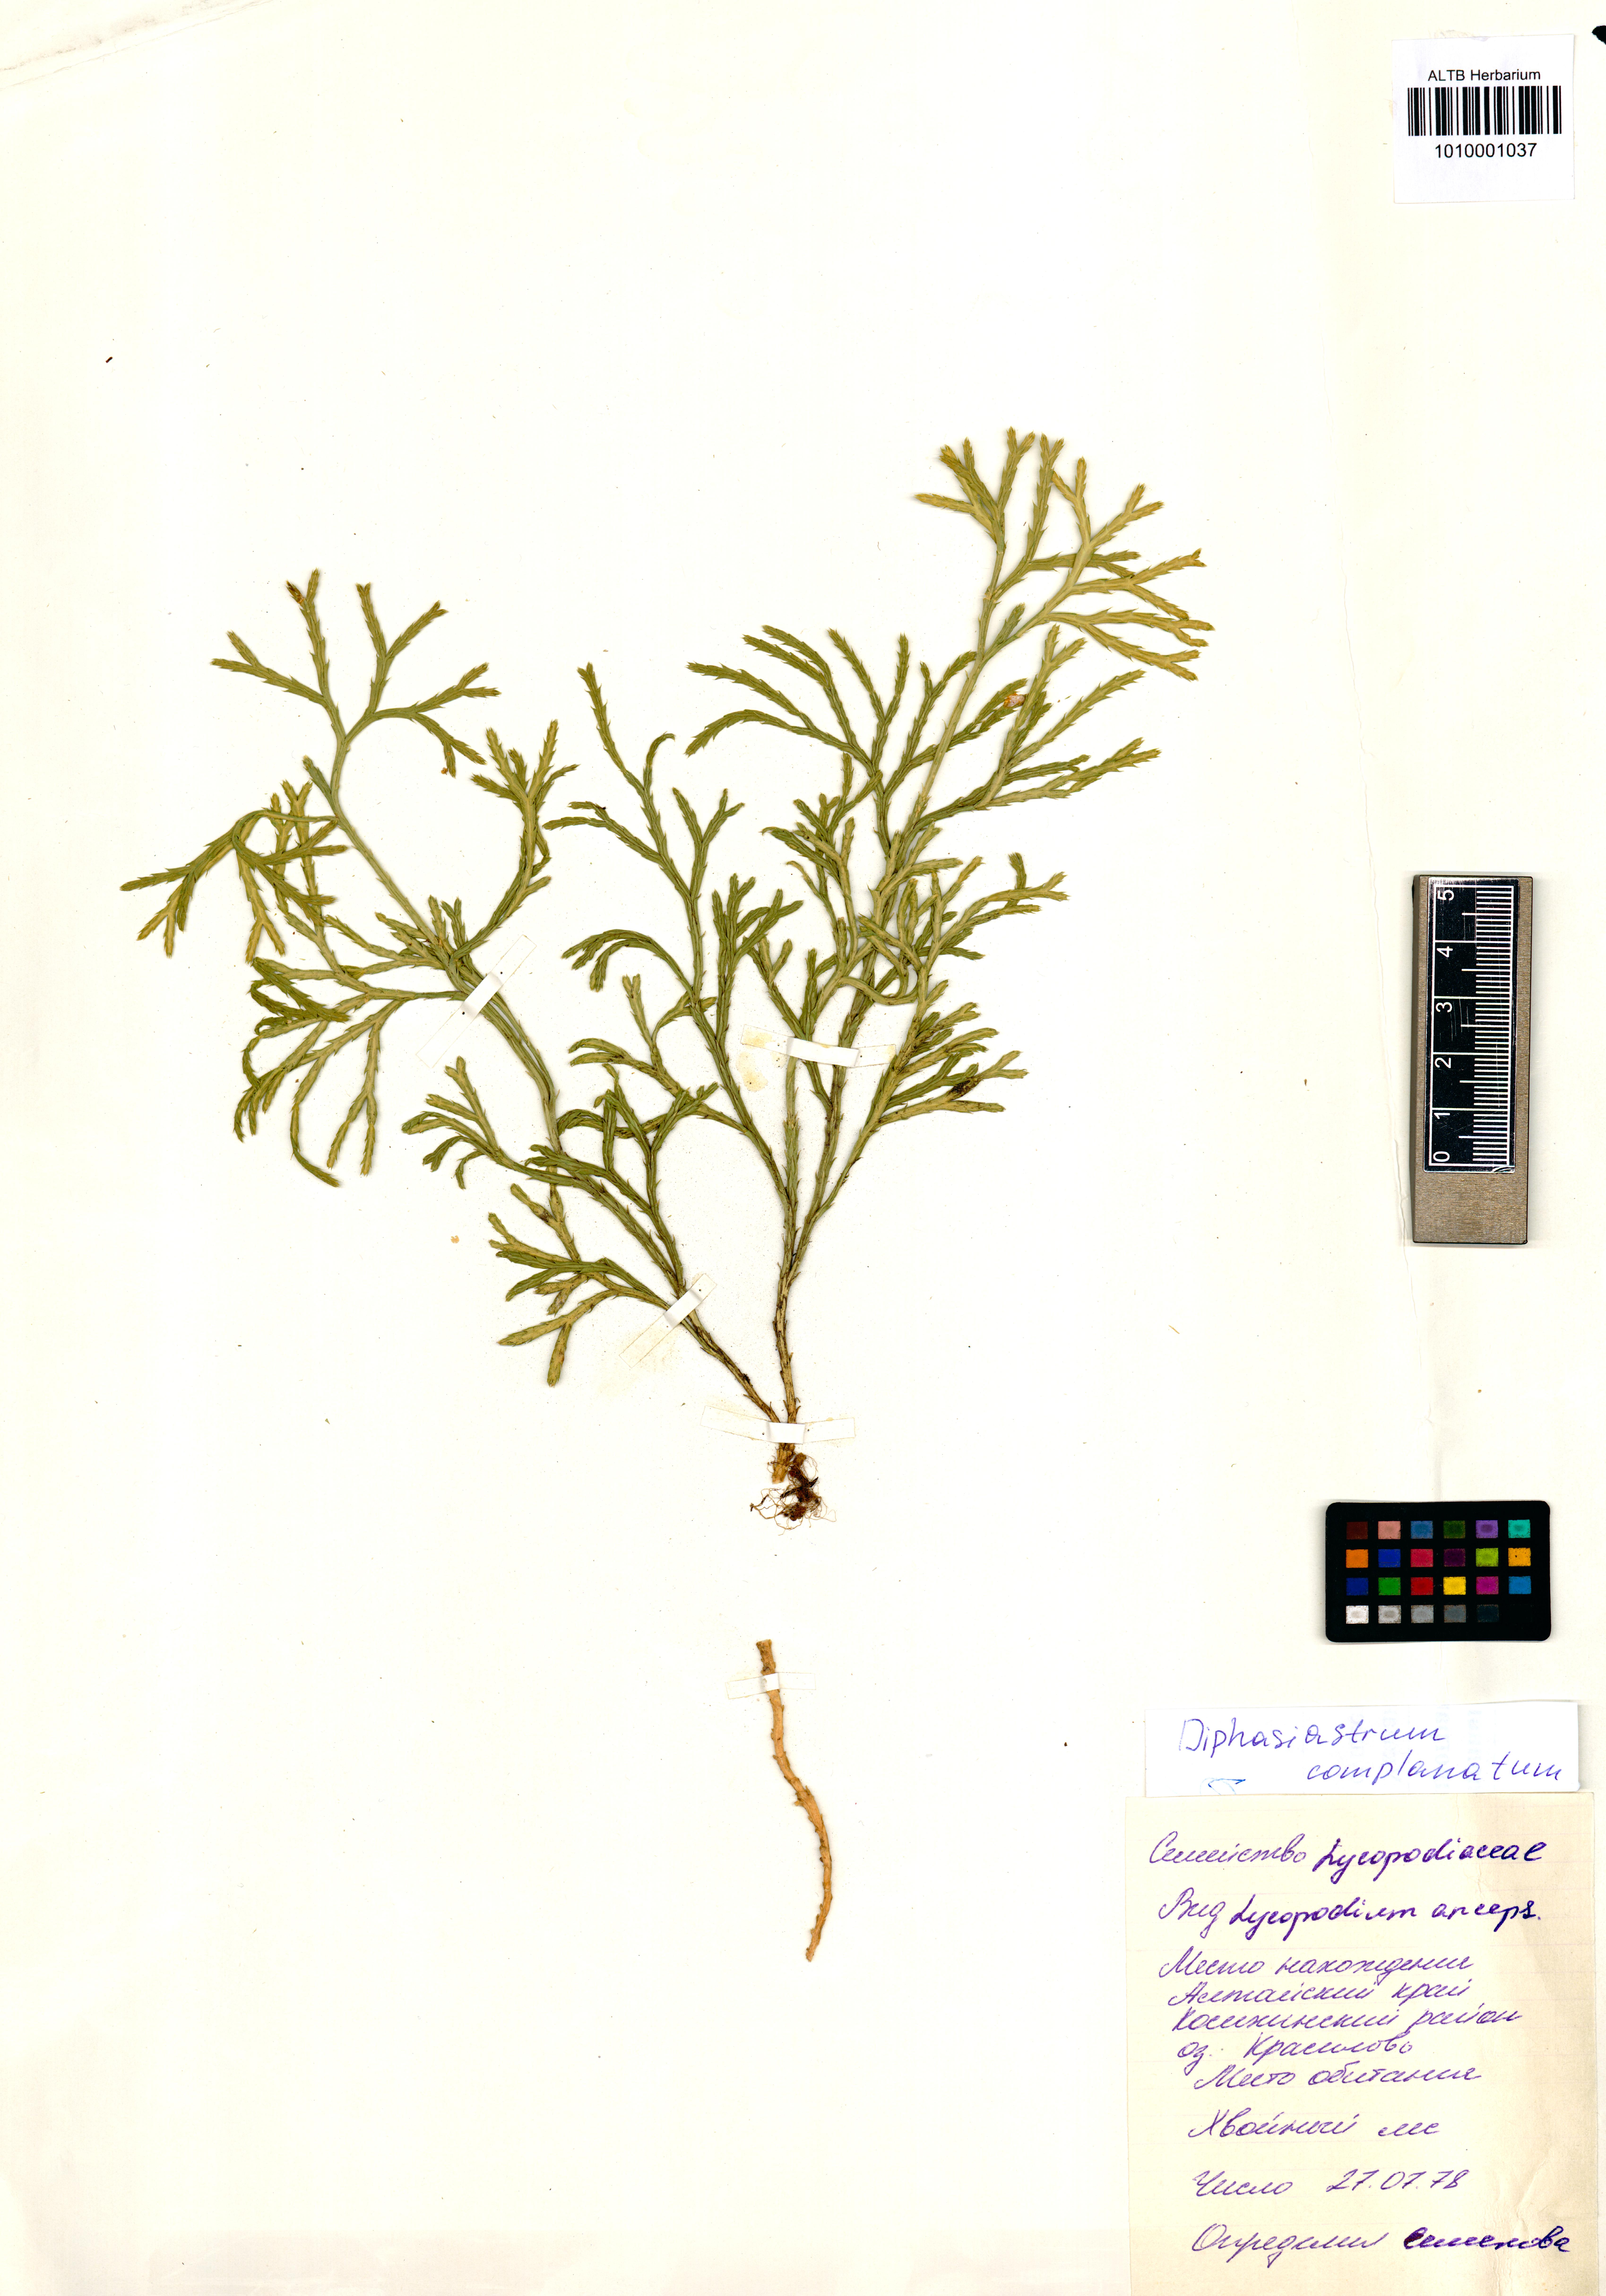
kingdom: Plantae
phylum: Tracheophyta
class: Lycopodiopsida
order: Lycopodiales
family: Lycopodiaceae
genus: Diphasiastrum
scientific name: Diphasiastrum complanatum
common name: Northern running-pine
